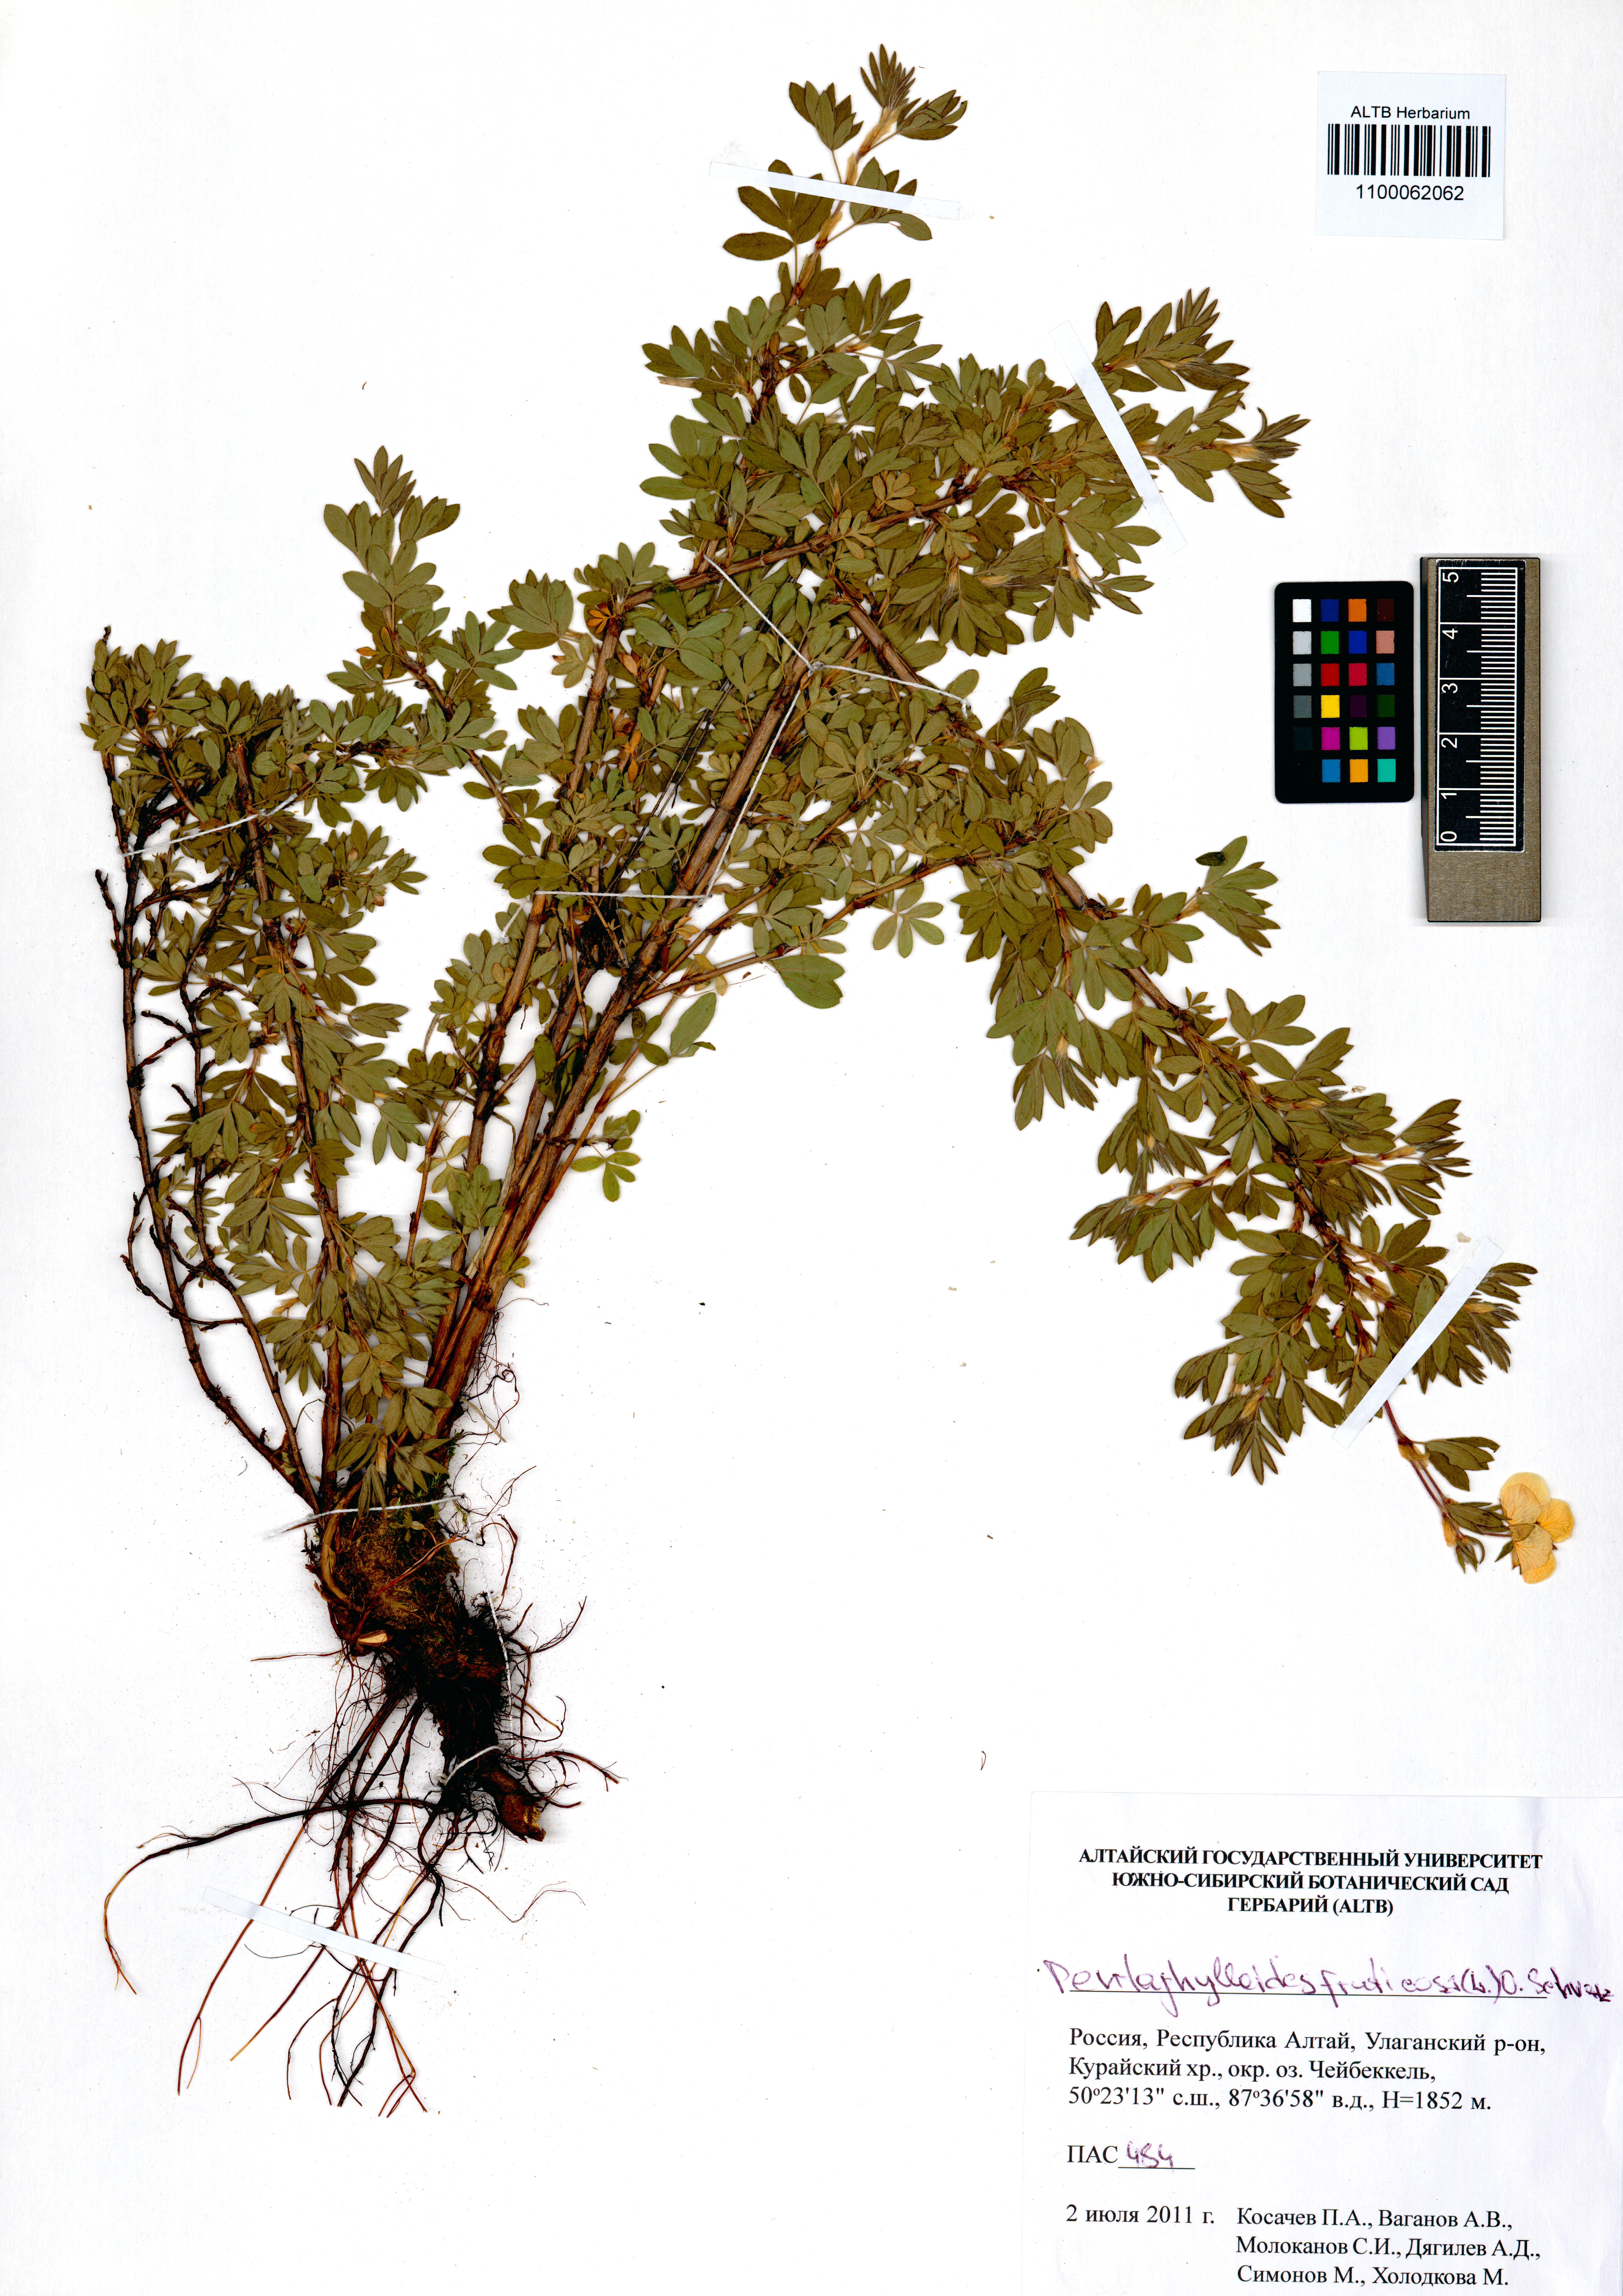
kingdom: Plantae
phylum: Tracheophyta
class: Magnoliopsida
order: Rosales
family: Rosaceae
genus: Dasiphora
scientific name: Dasiphora fruticosa
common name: Shrubby cinquefoil
